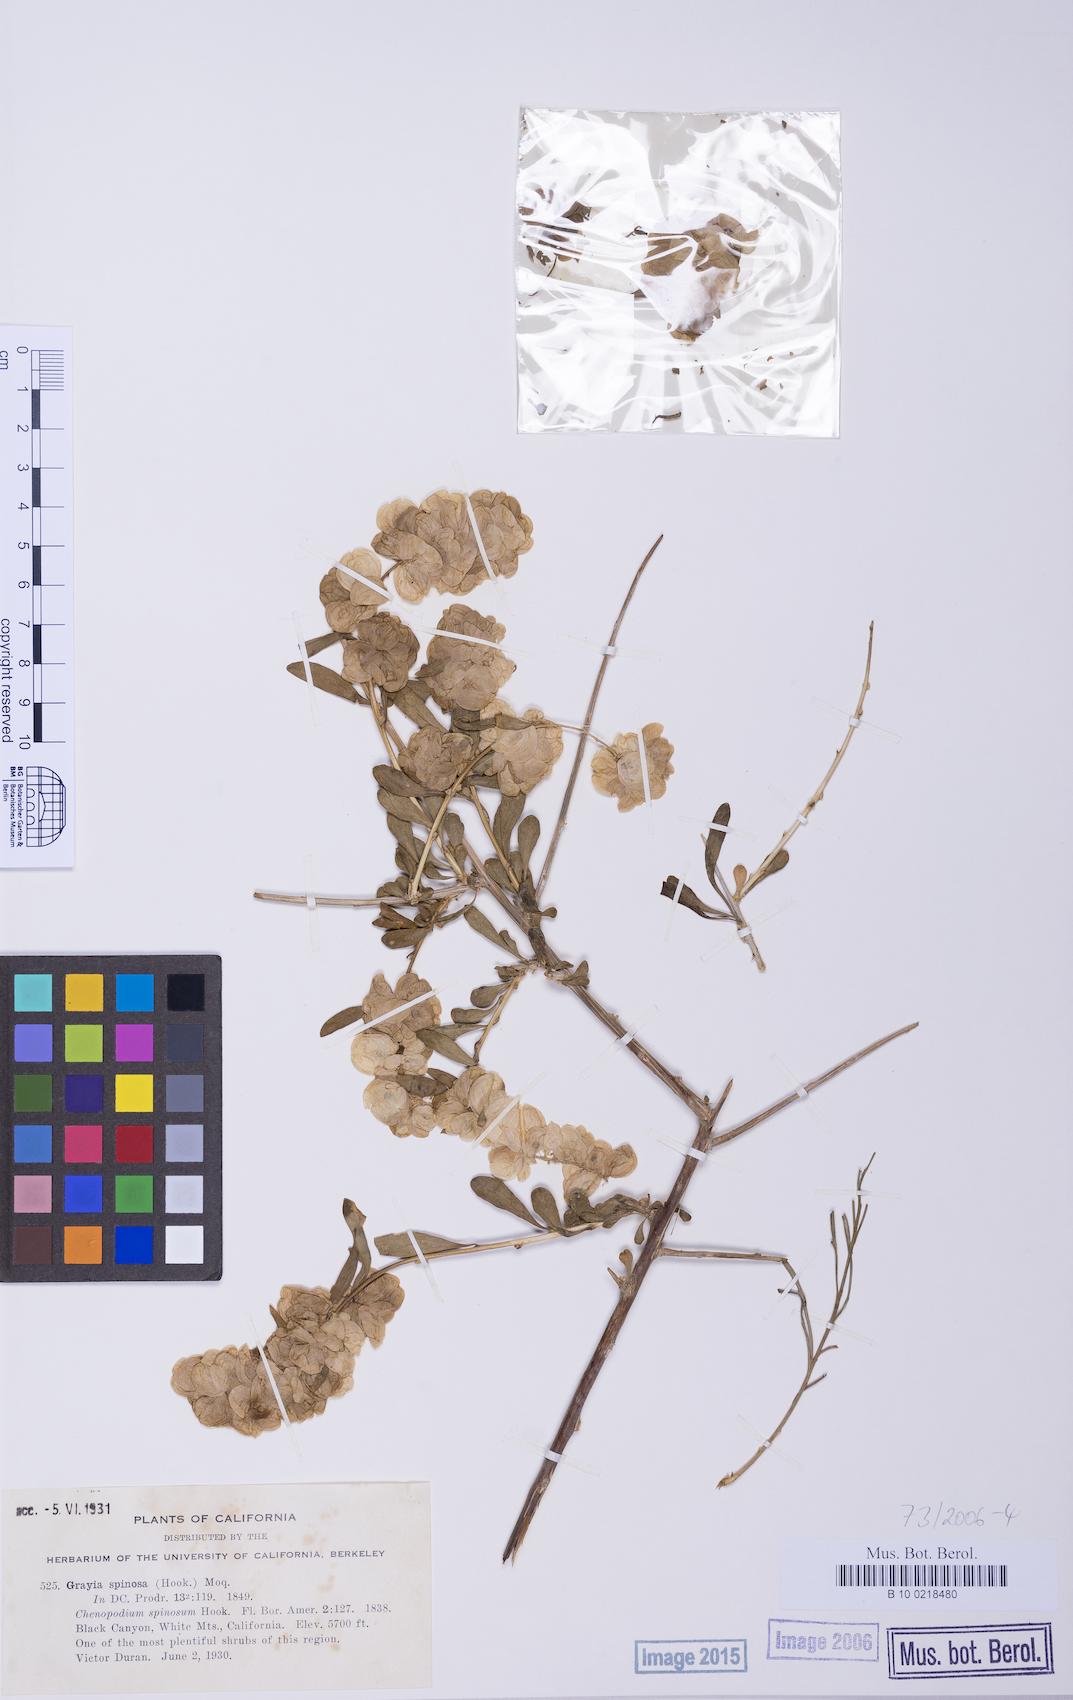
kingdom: Plantae
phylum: Tracheophyta
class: Magnoliopsida
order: Caryophyllales
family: Amaranthaceae
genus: Grayia
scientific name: Grayia spinosa
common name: Spiny hopsage
